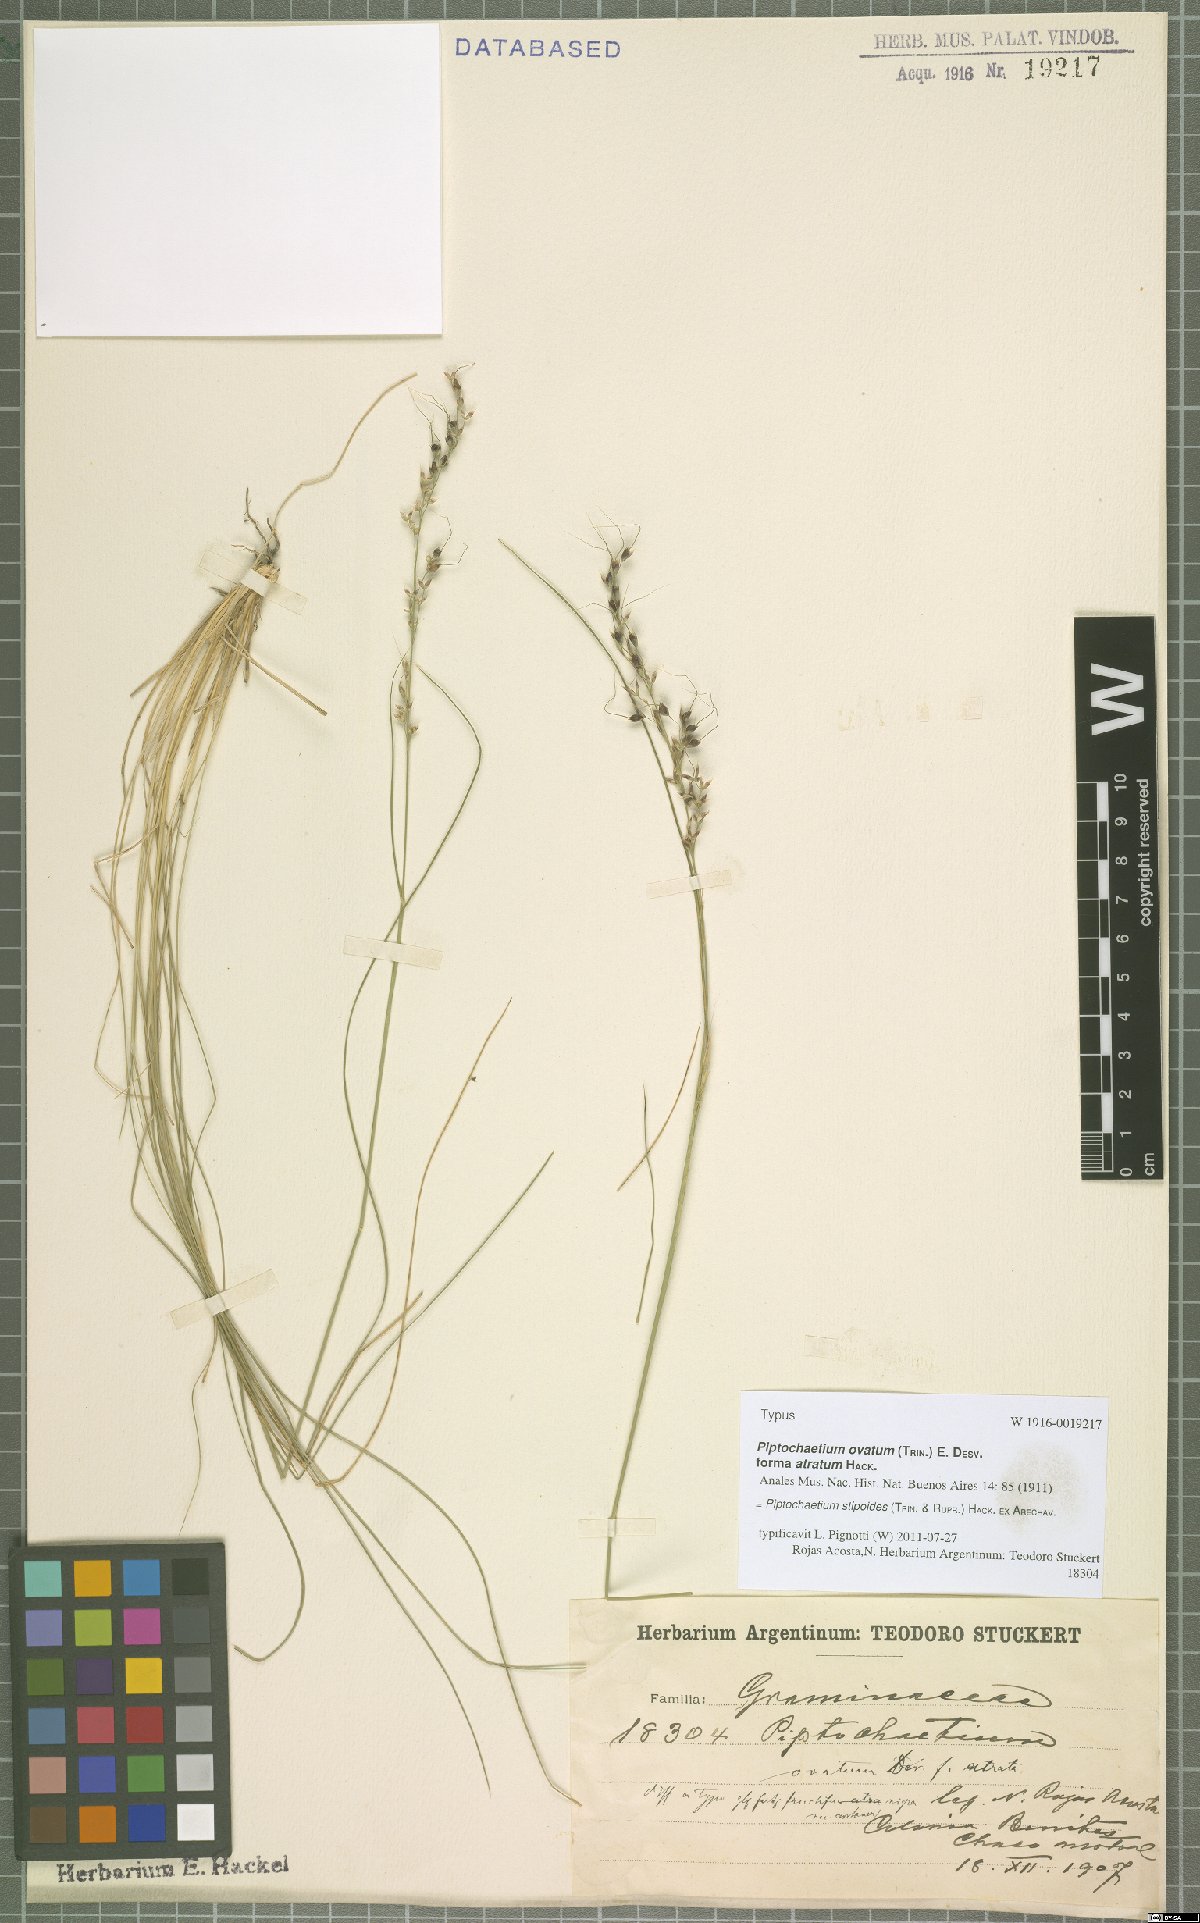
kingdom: Plantae
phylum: Tracheophyta
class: Liliopsida
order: Poales
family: Poaceae
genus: Piptochaetium
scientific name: Piptochaetium stipoides
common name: Purple speargrass
